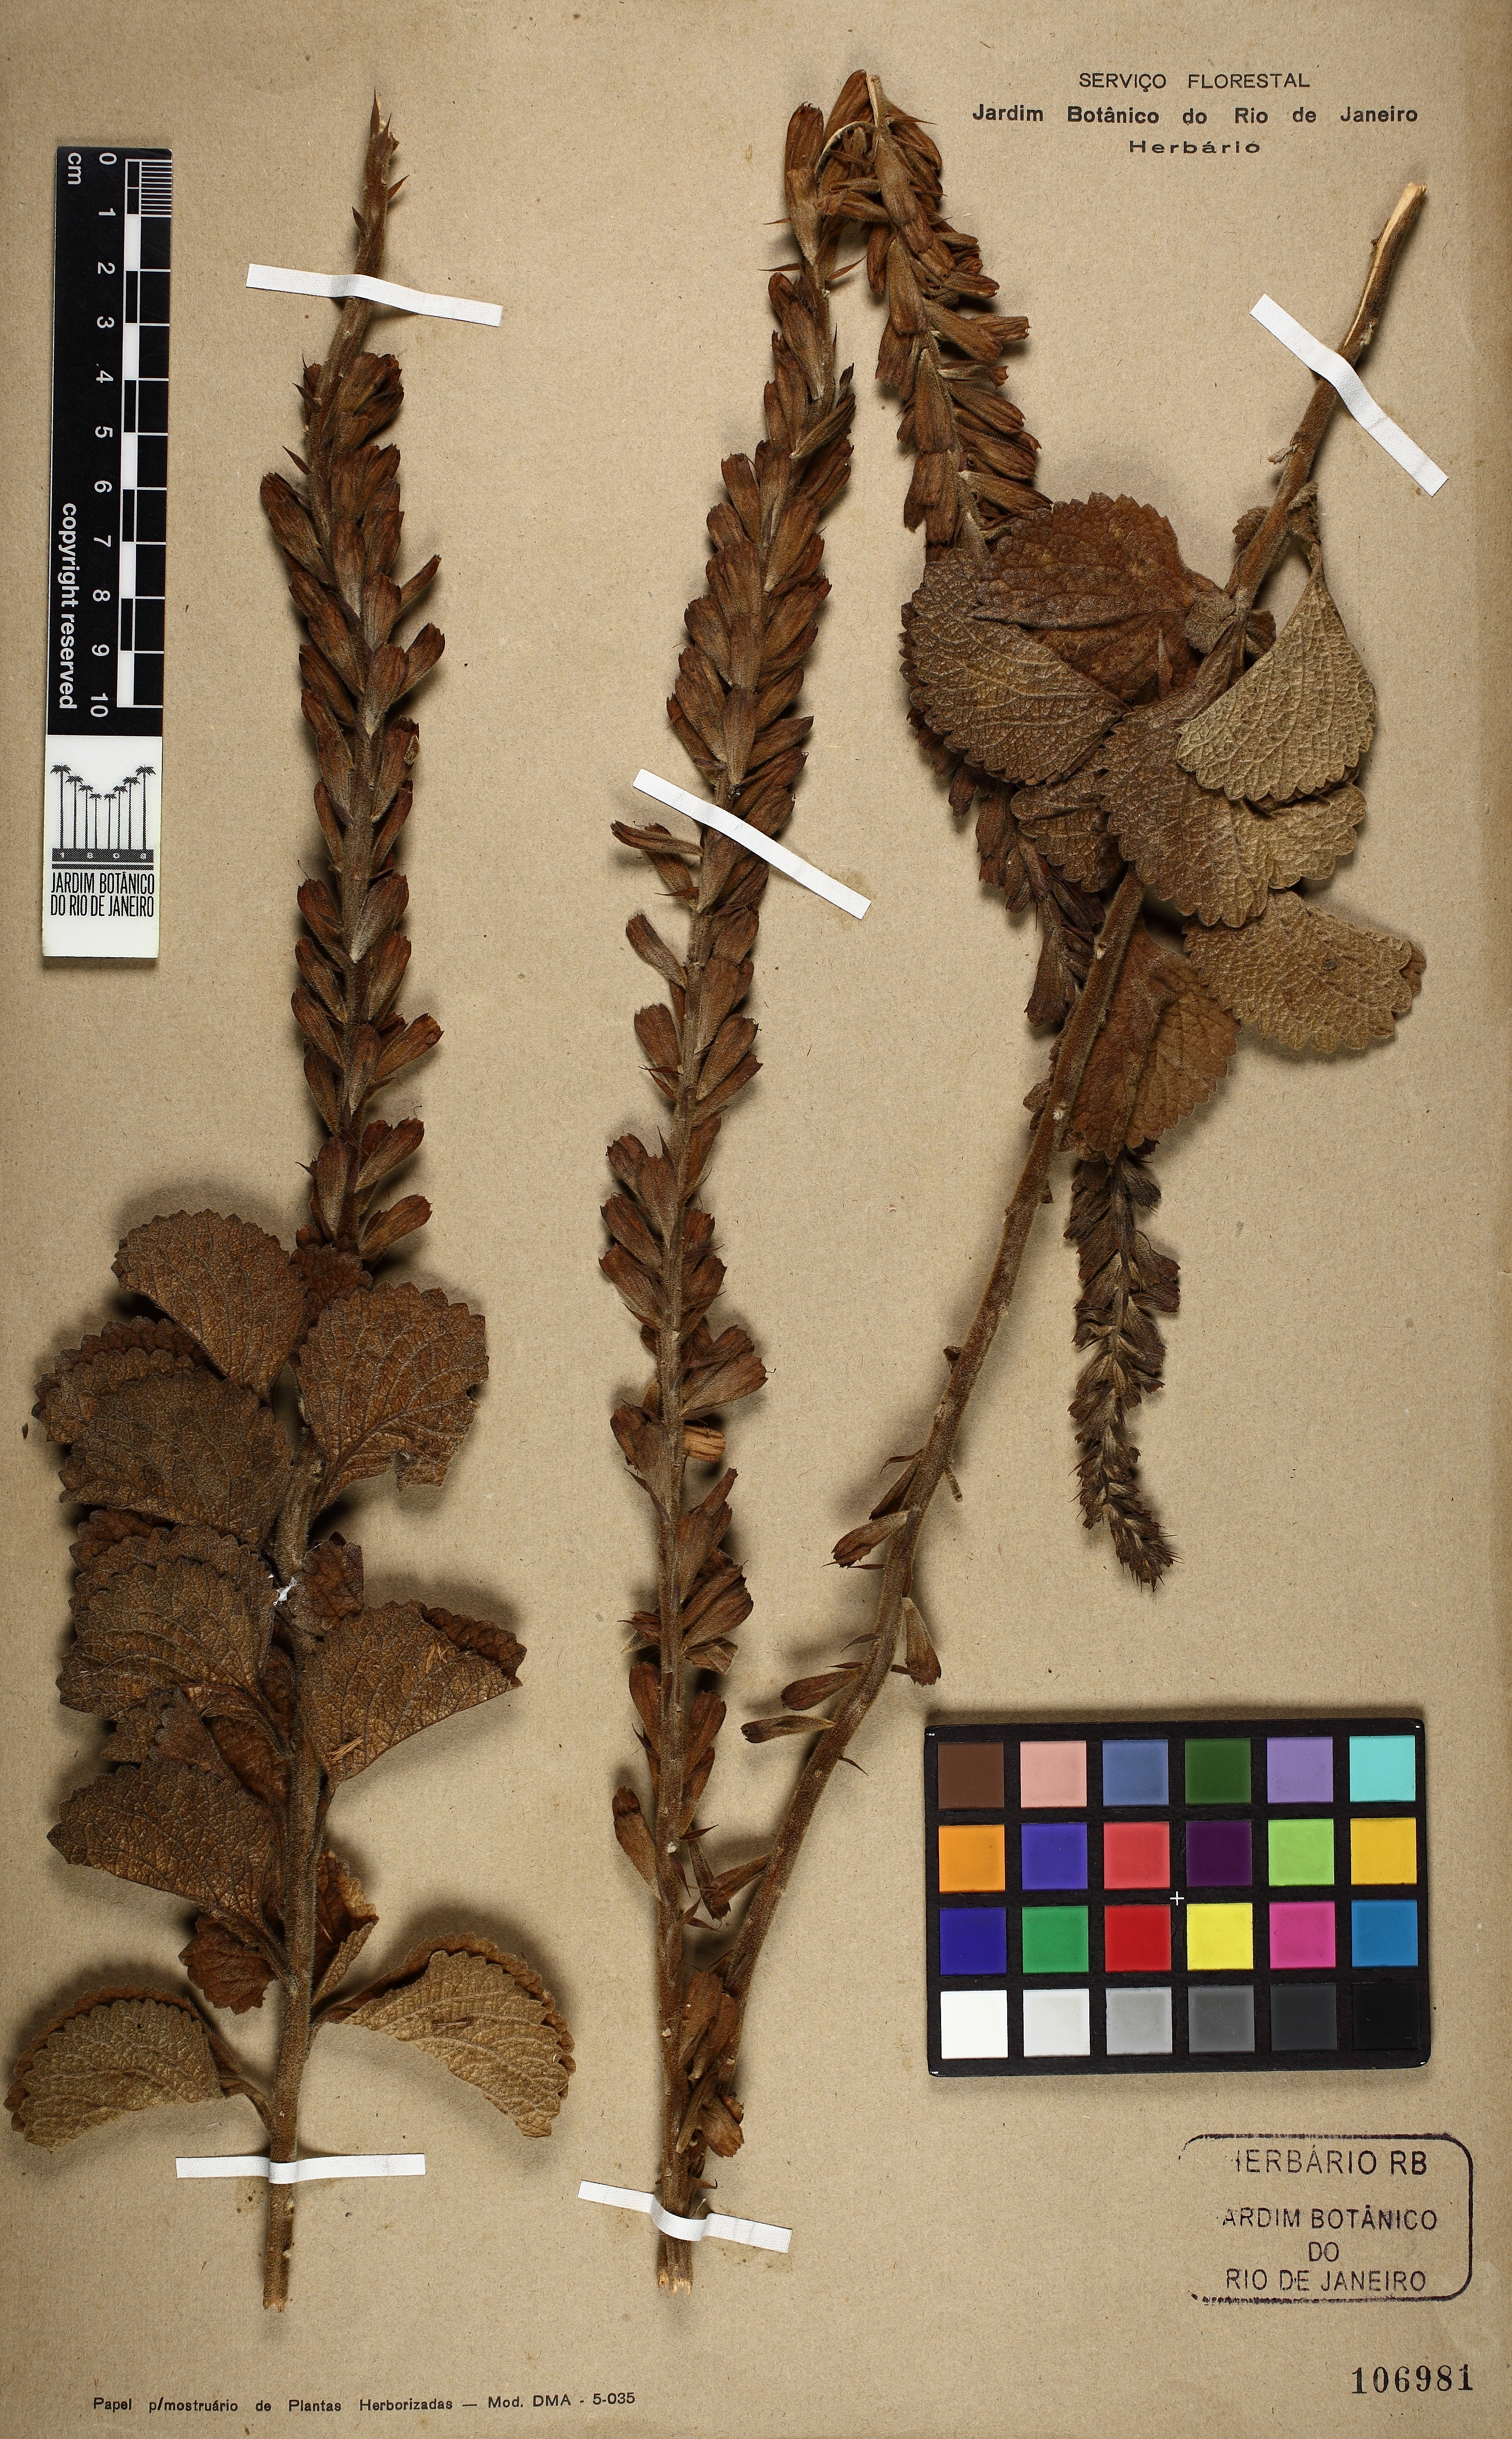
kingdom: Plantae
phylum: Tracheophyta
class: Magnoliopsida
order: Lamiales
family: Verbenaceae
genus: Stachytarpheta
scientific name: Stachytarpheta longispicata
